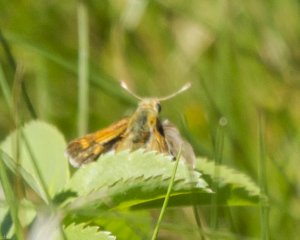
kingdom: Animalia
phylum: Arthropoda
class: Insecta
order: Lepidoptera
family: Hesperiidae
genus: Polites
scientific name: Polites themistocles
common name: Tawny-edged Skipper
